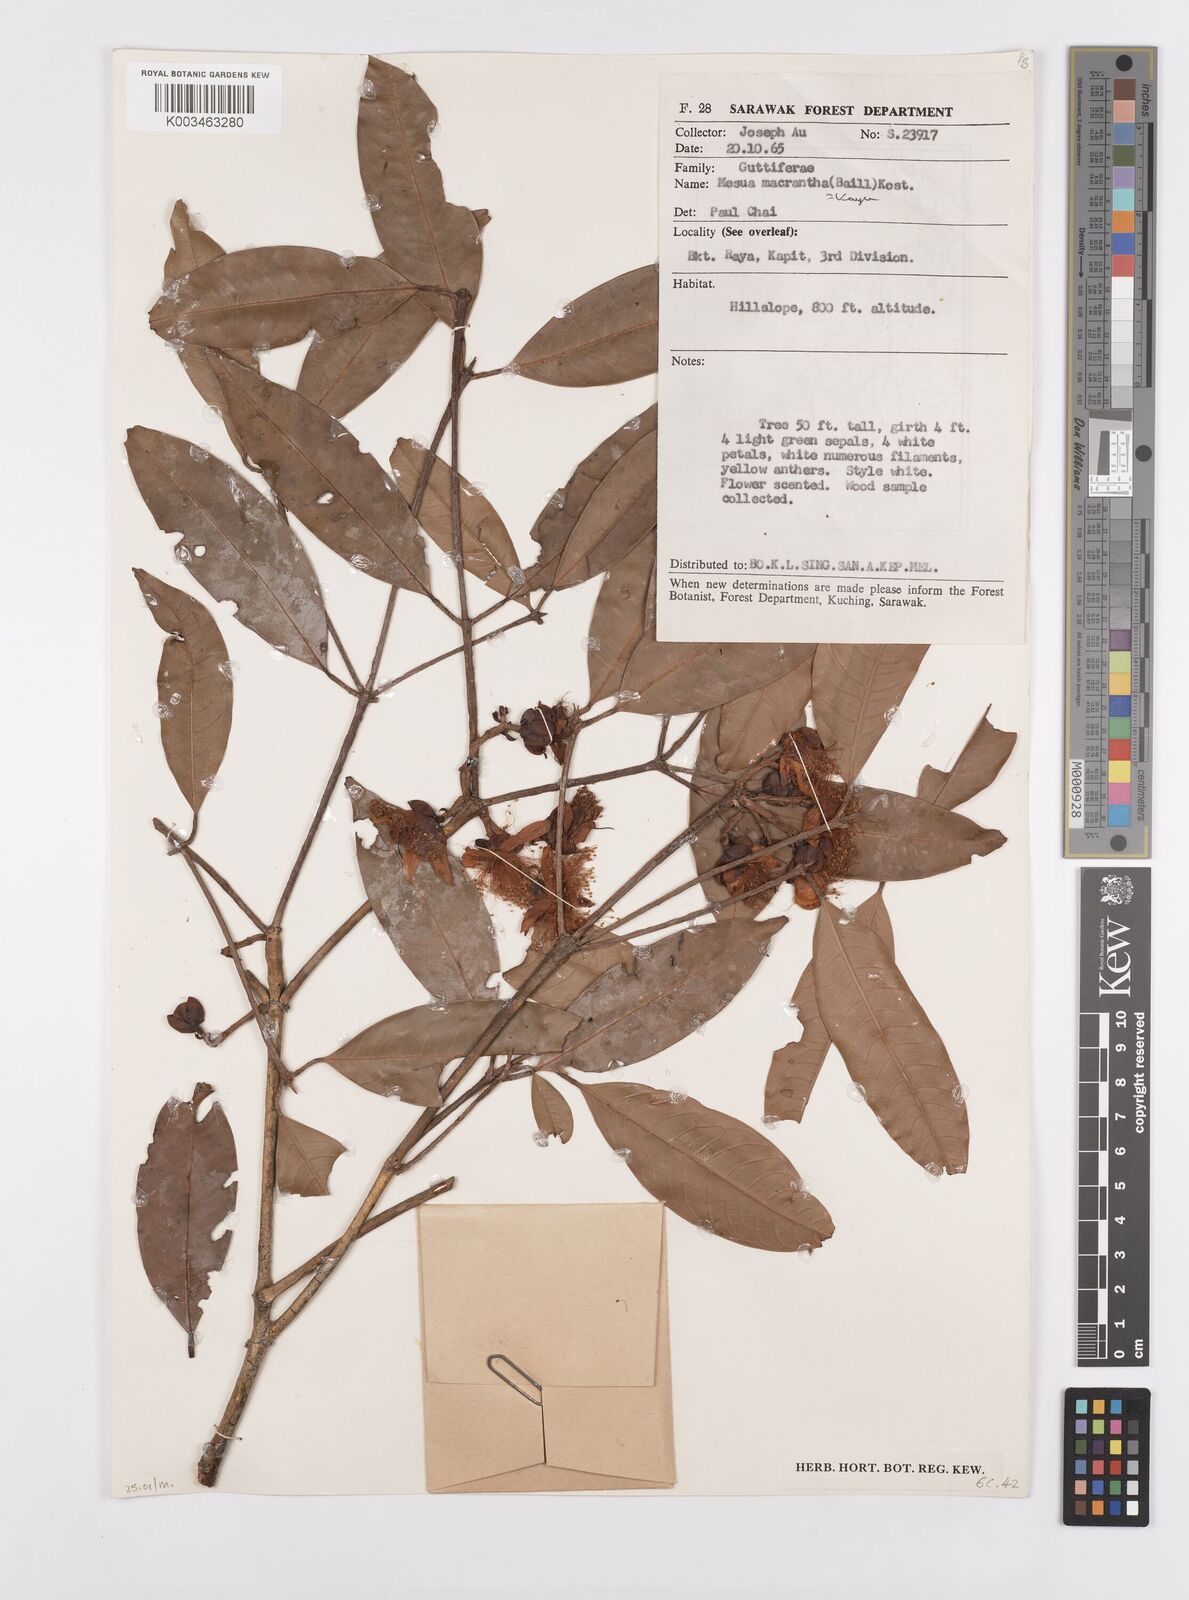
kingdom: Plantae
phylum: Tracheophyta
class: Magnoliopsida
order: Malpighiales
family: Calophyllaceae
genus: Kayea
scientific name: Kayea macrantha
